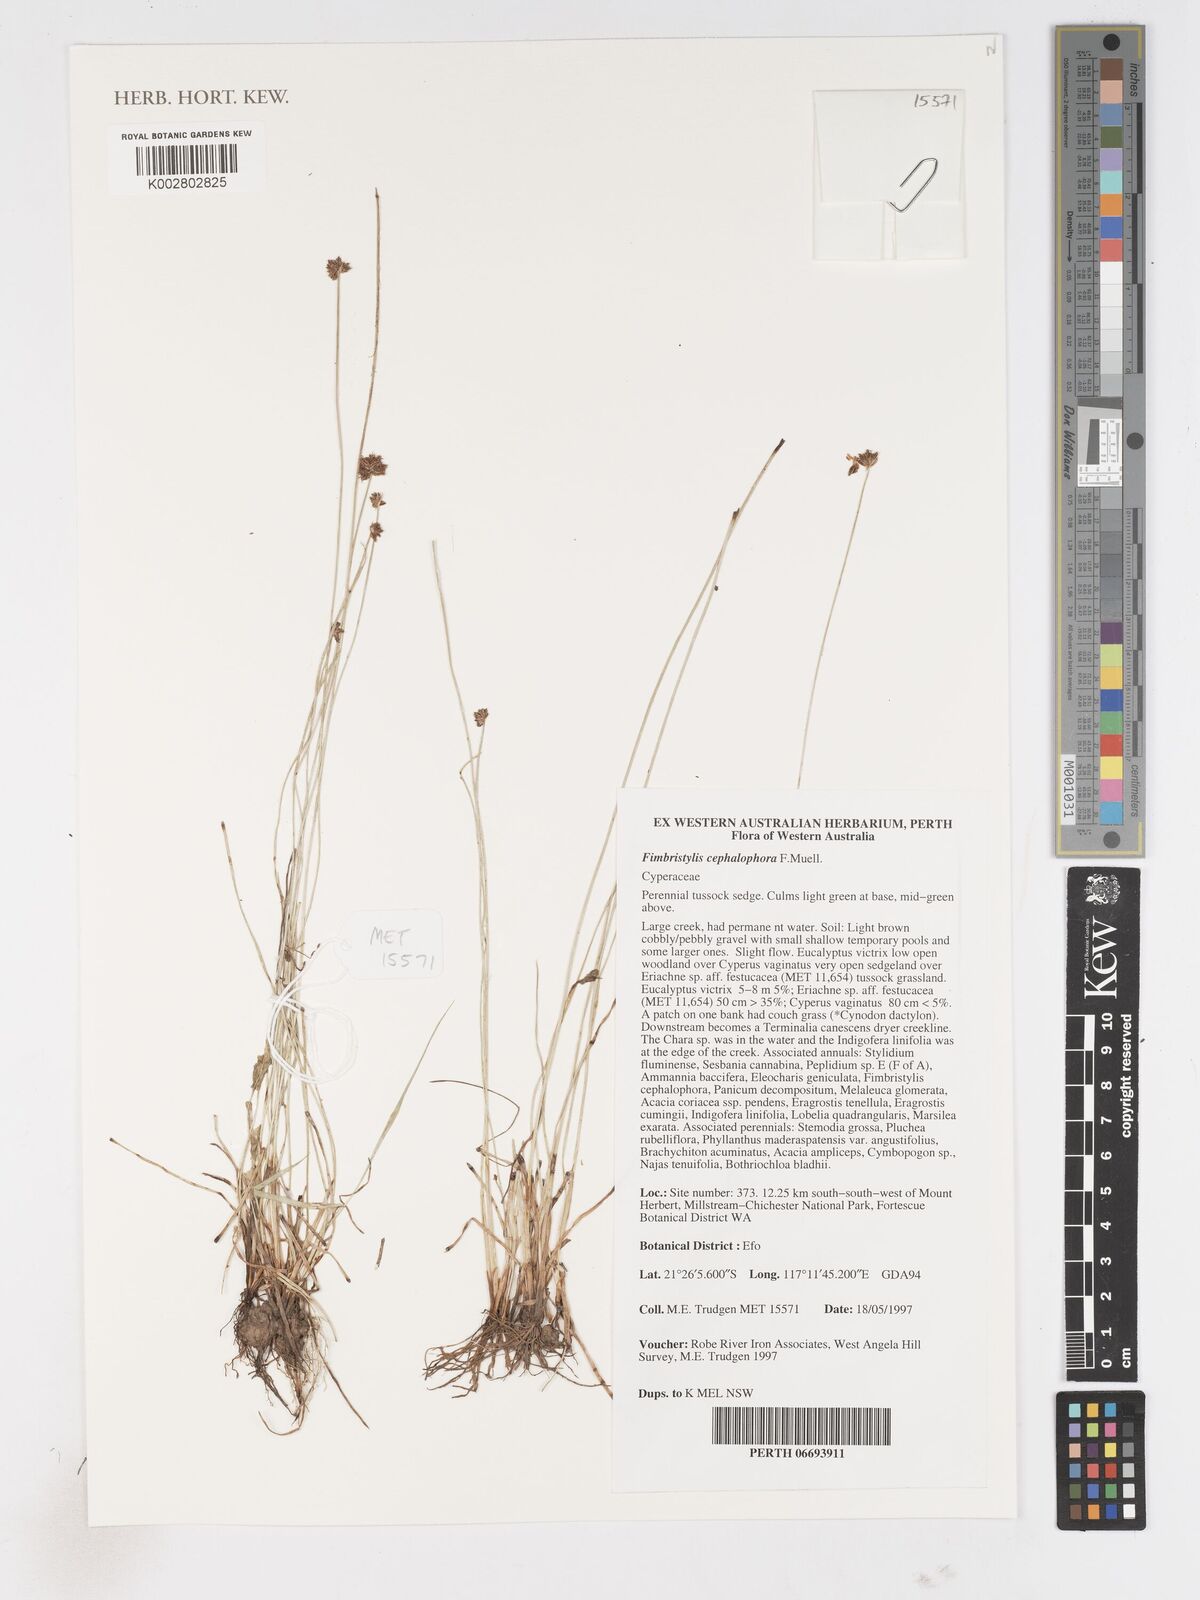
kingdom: Plantae
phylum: Tracheophyta
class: Liliopsida
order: Poales
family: Cyperaceae
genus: Fimbristylis
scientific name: Fimbristylis cephalophora
